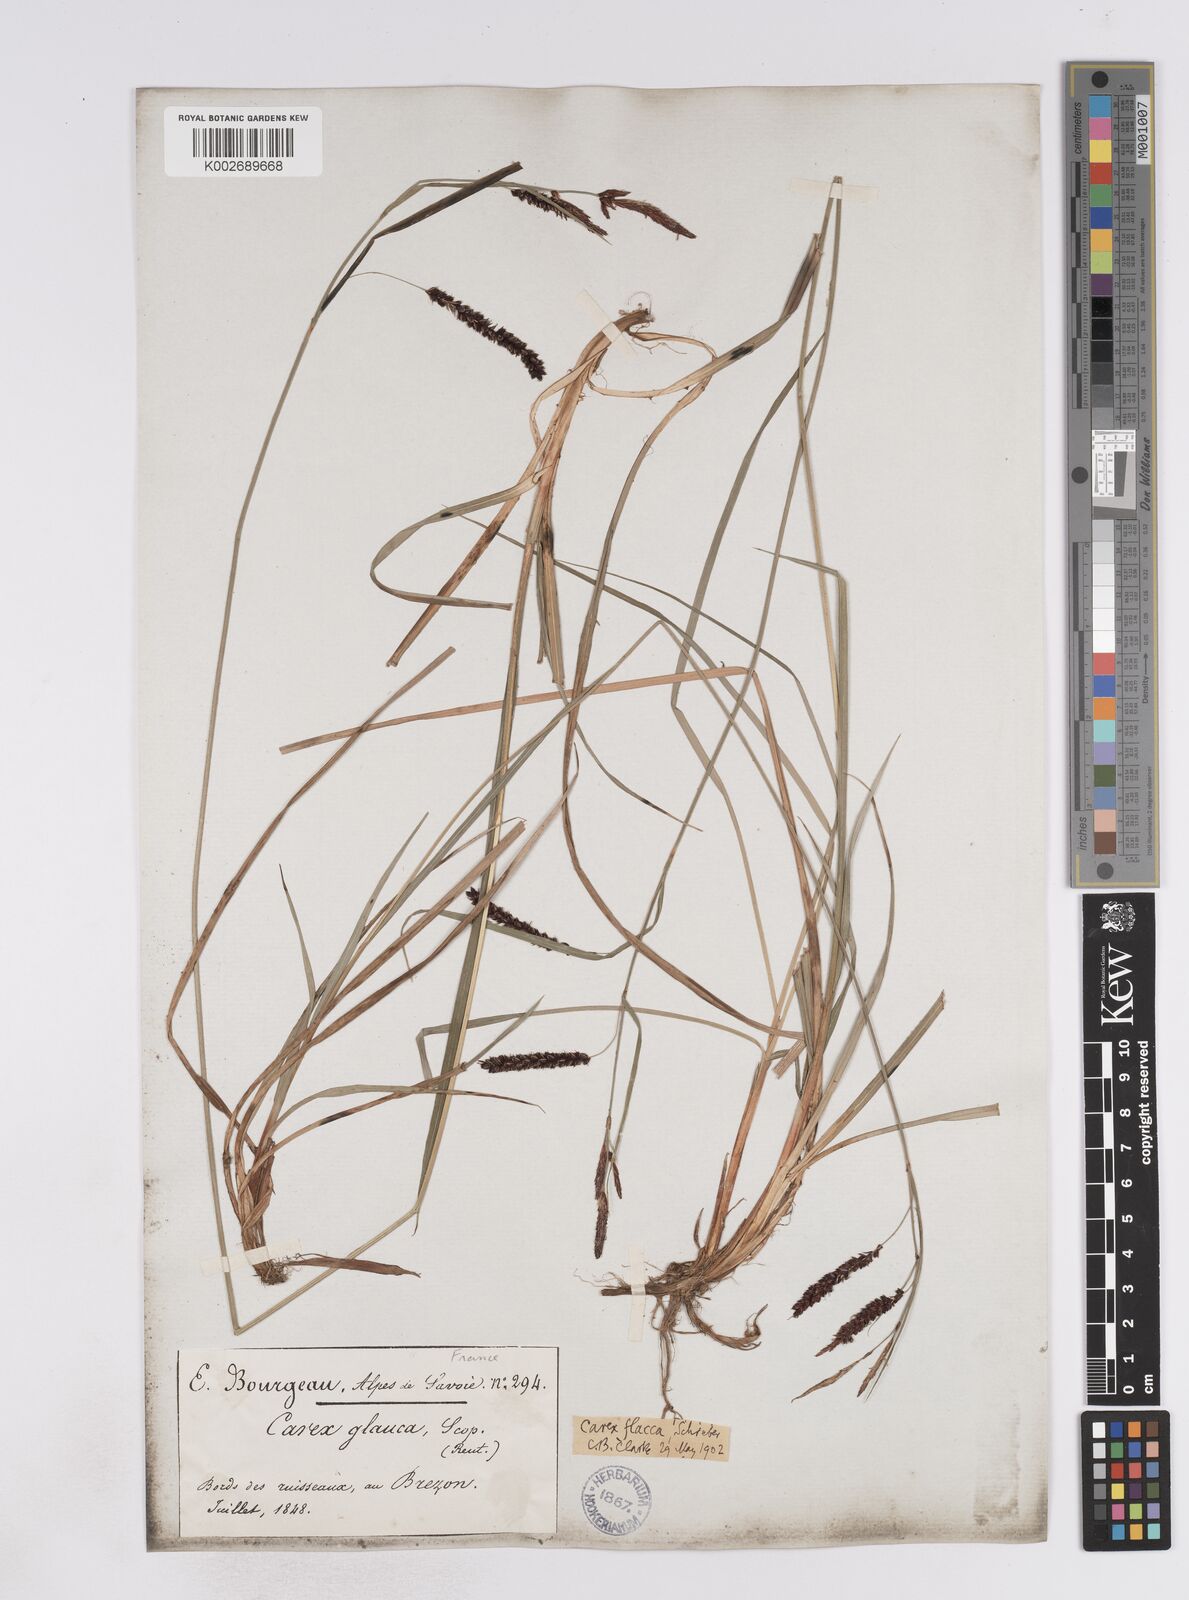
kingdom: Plantae
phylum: Tracheophyta
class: Liliopsida
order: Poales
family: Cyperaceae
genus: Carex
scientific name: Carex flacca
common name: Glaucous sedge
